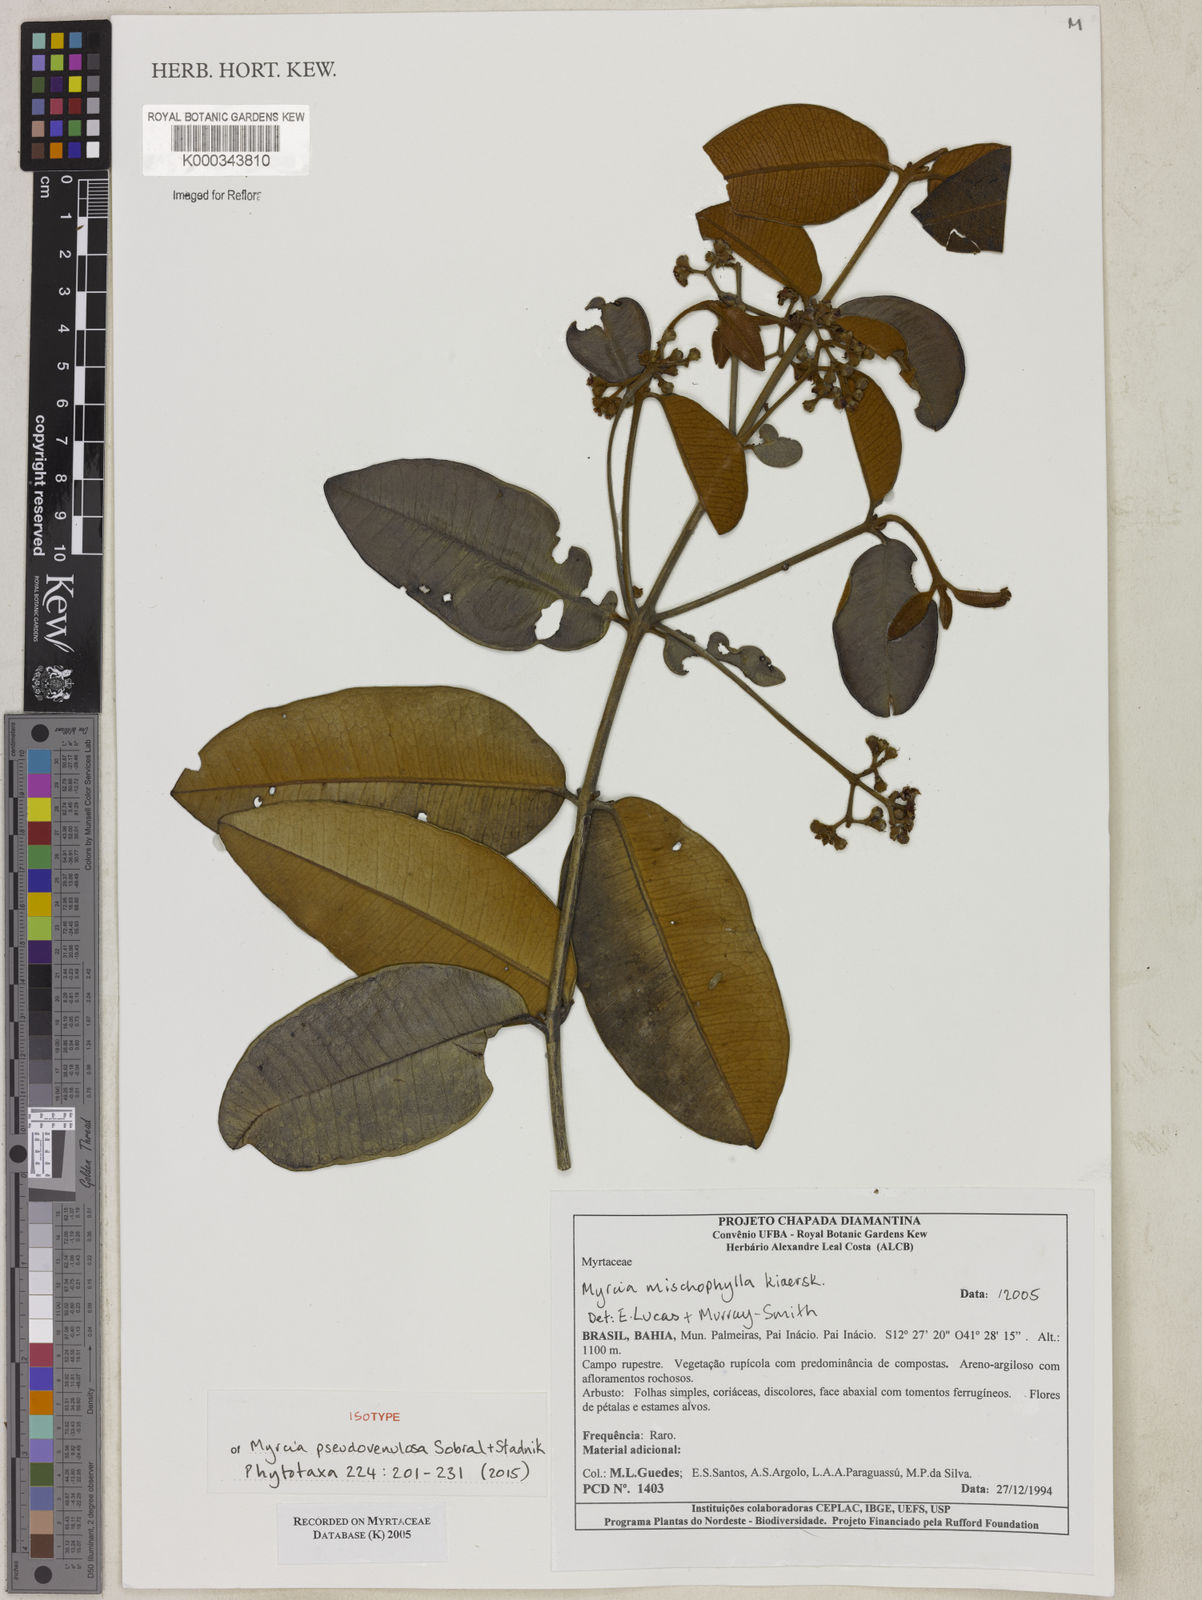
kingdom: Plantae
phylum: Tracheophyta
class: Magnoliopsida
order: Myrtales
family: Myrtaceae
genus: Myrcia
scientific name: Myrcia pseudovenulosa
